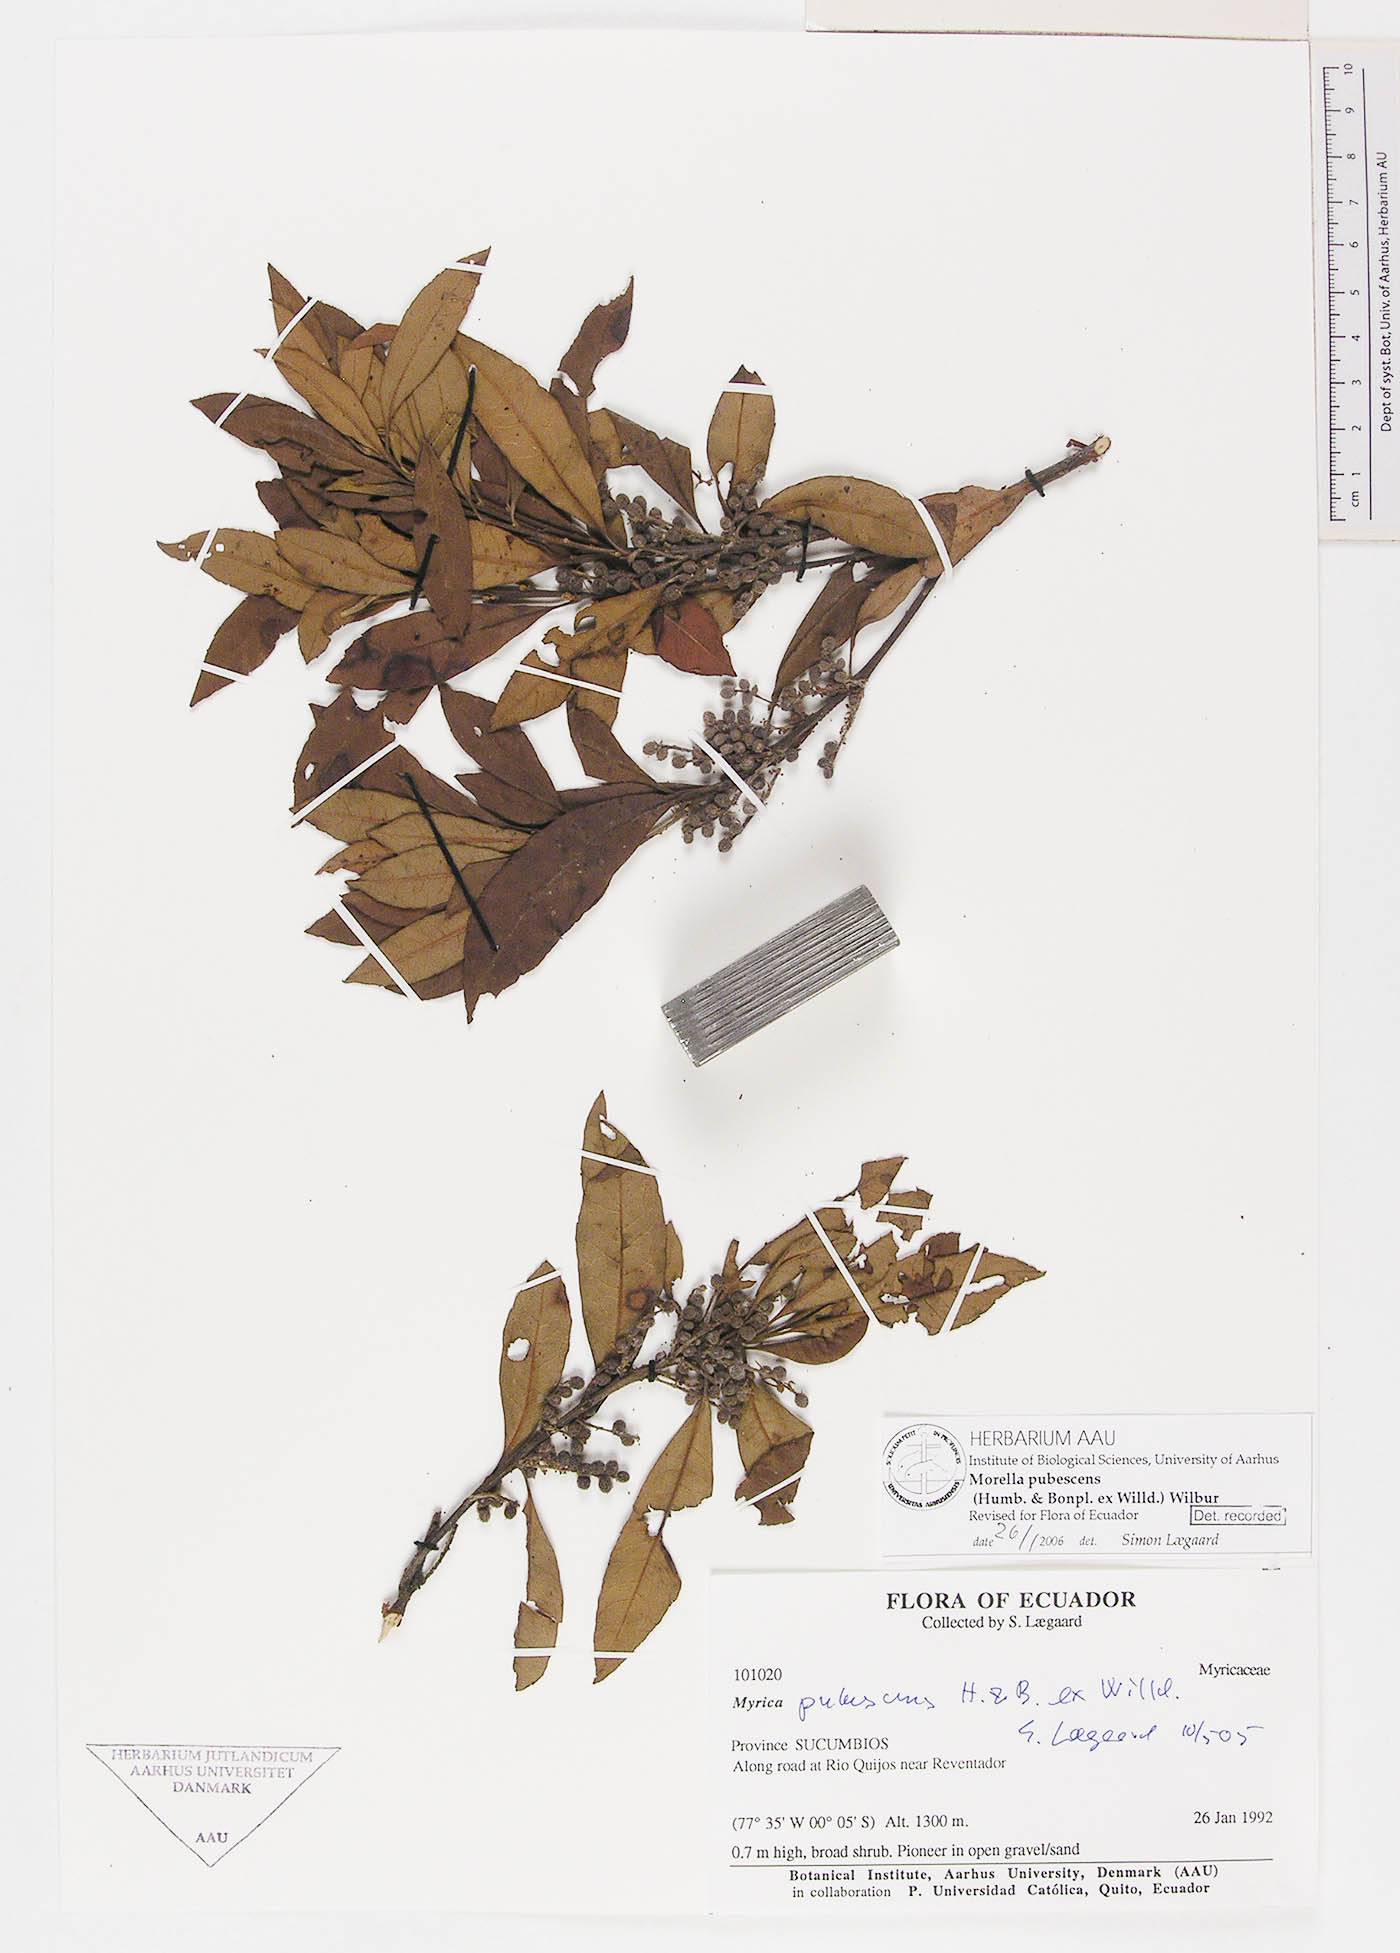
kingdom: Plantae
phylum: Tracheophyta
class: Magnoliopsida
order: Fagales
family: Myricaceae
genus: Morella
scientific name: Morella pubescens
